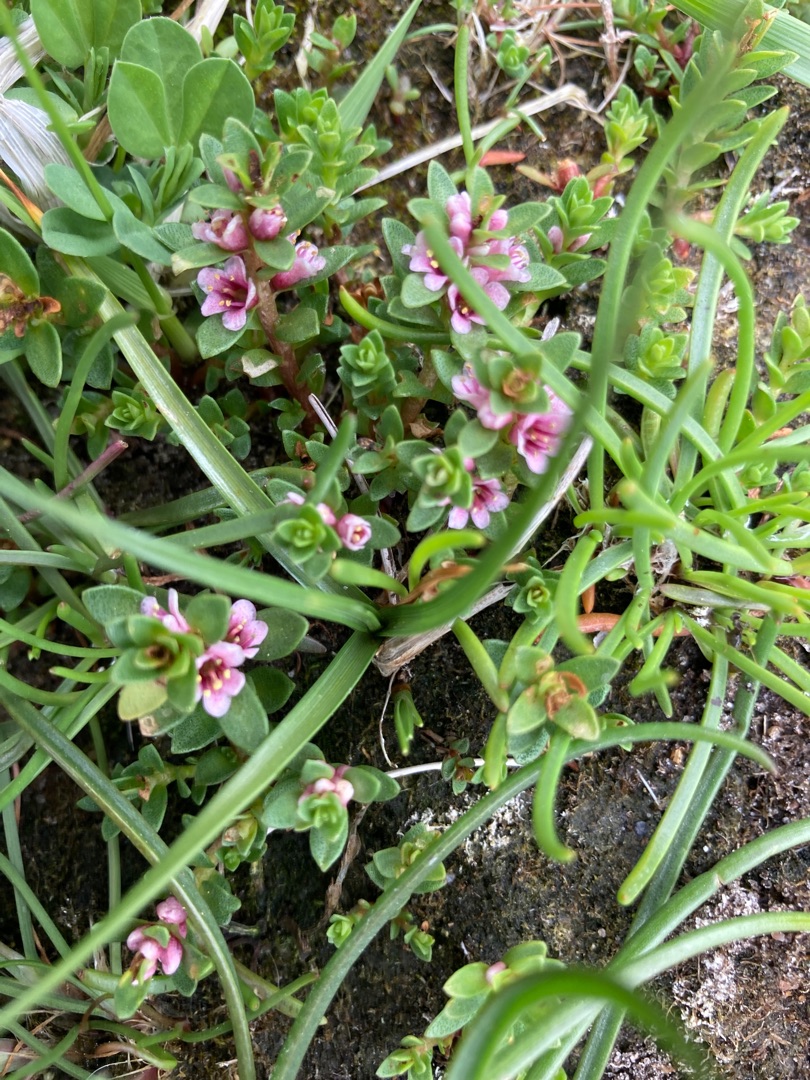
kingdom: Plantae
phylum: Tracheophyta
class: Magnoliopsida
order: Ericales
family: Primulaceae
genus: Lysimachia
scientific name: Lysimachia maritima
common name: Sandkryb
